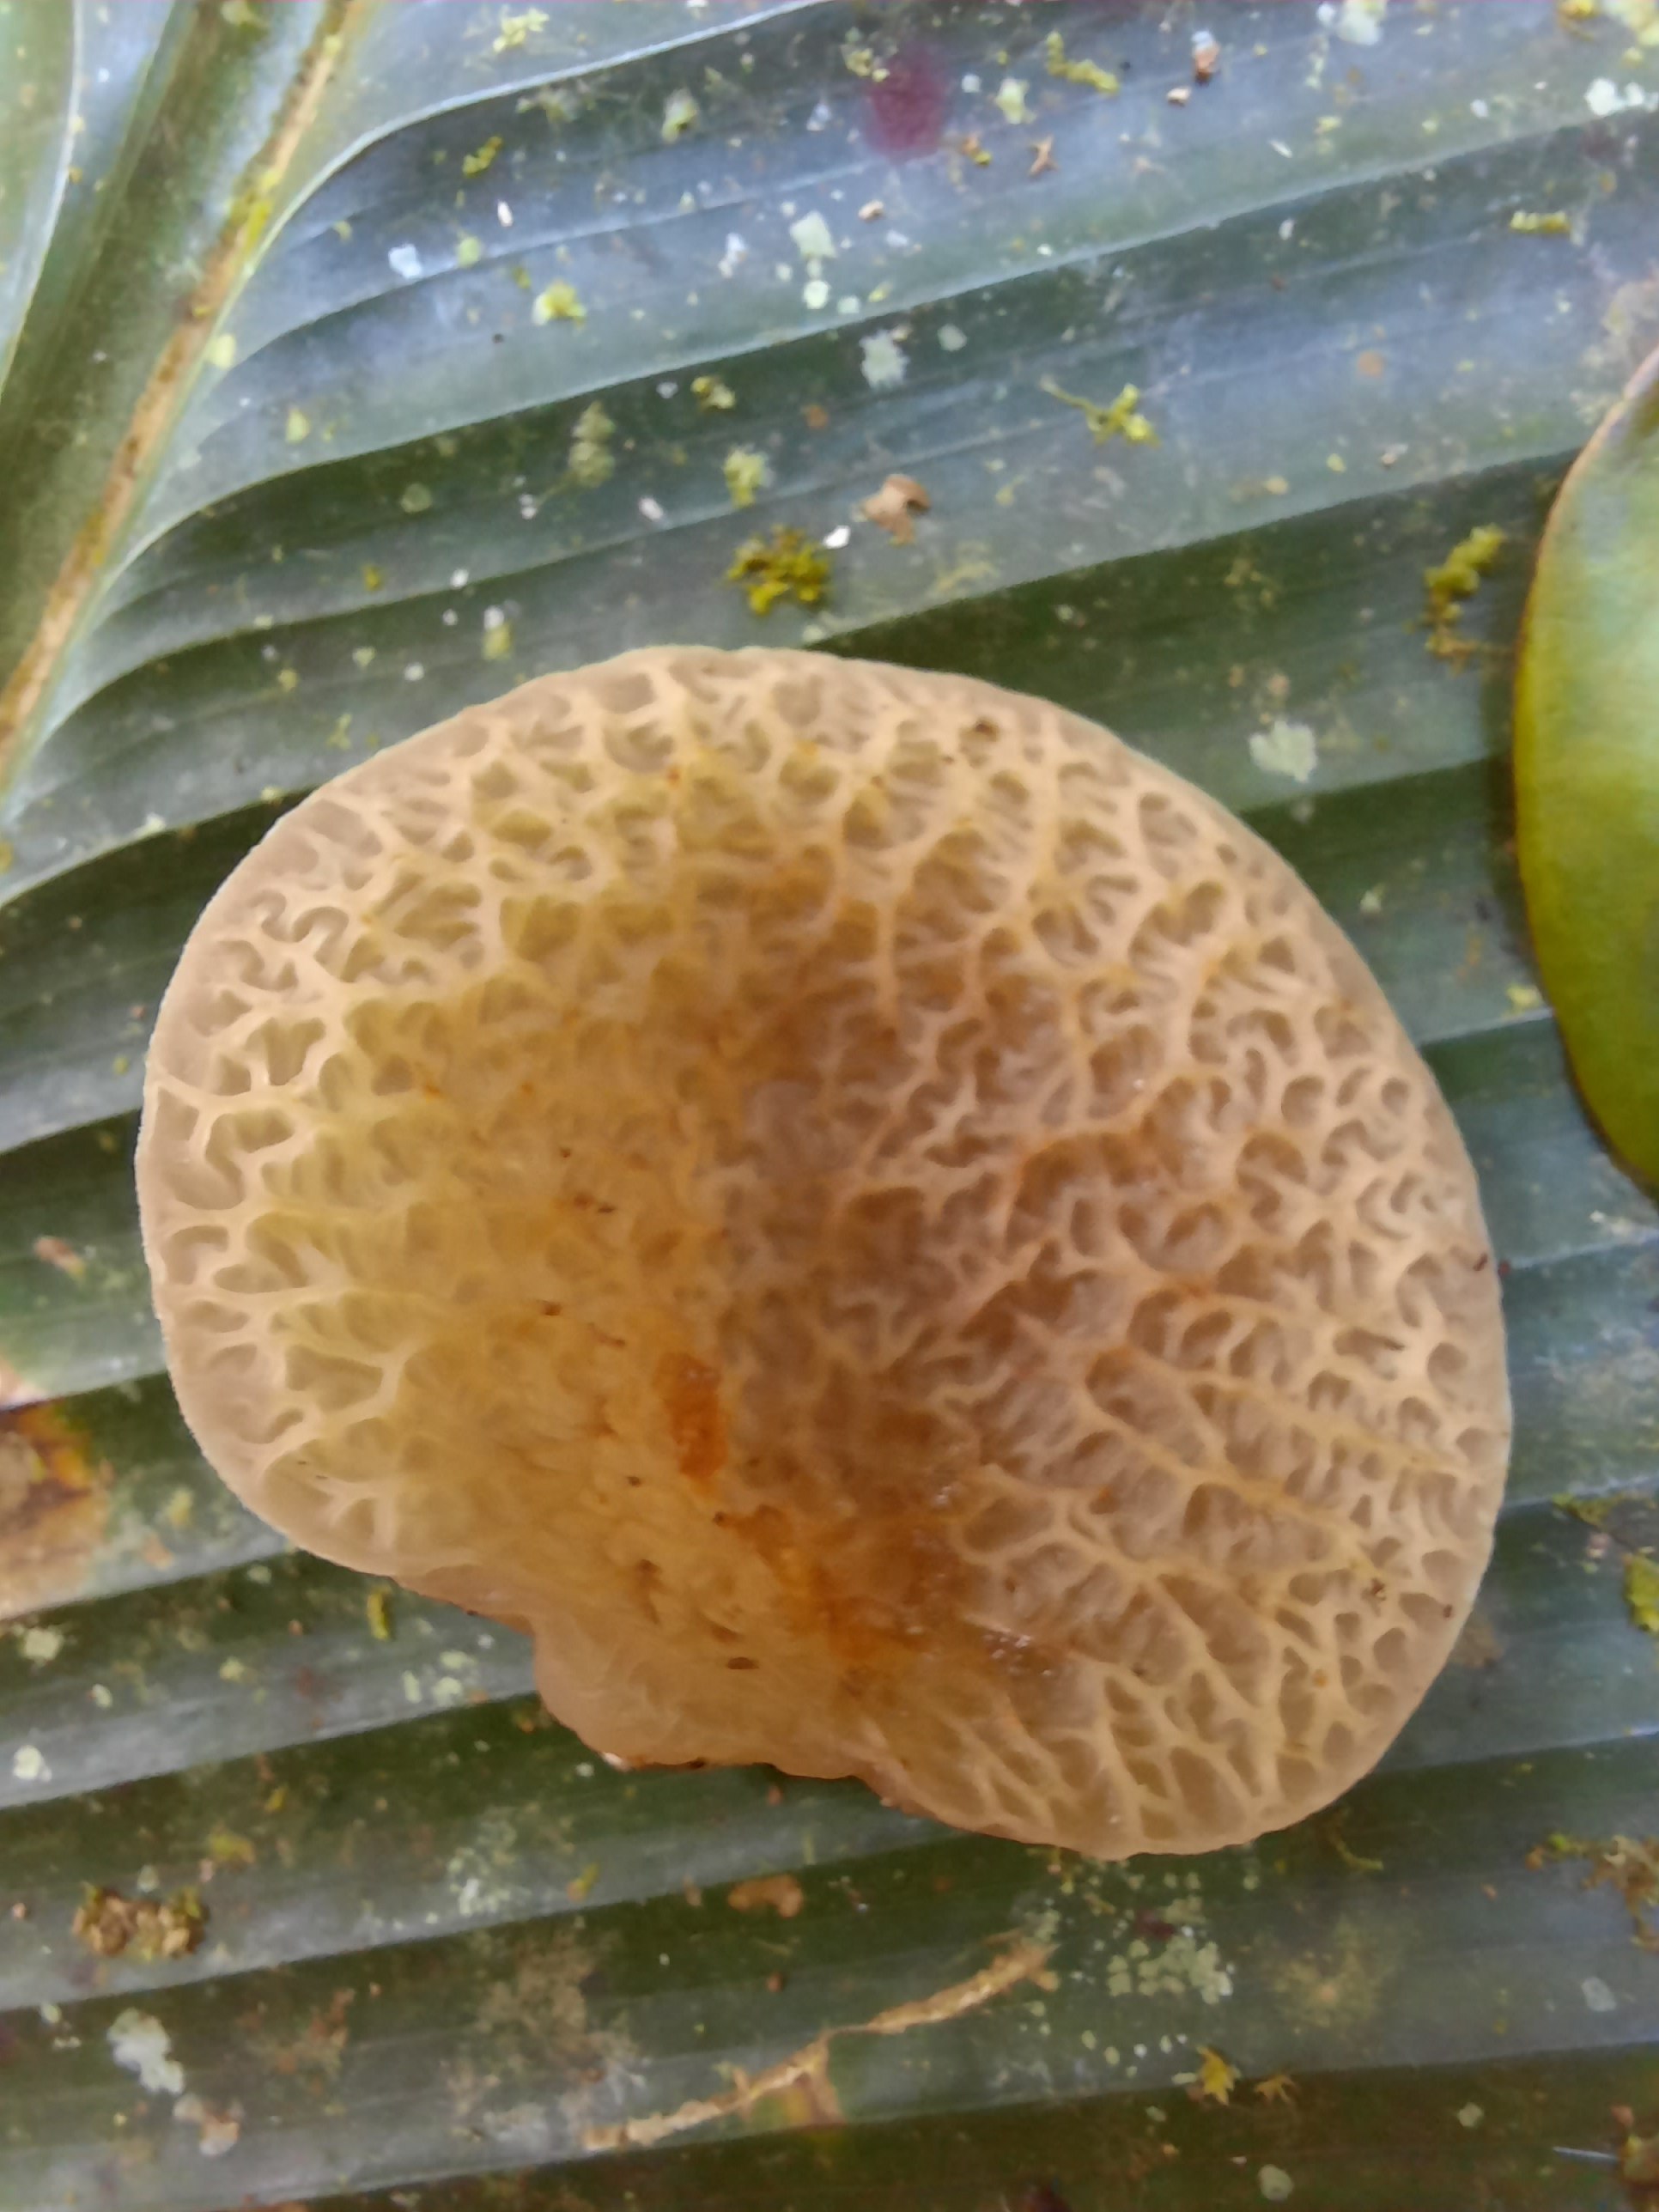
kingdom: Fungi
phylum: Basidiomycota
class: Agaricomycetes
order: Auriculariales
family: Auriculariaceae
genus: Auricularia
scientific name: Auricularia delicata
